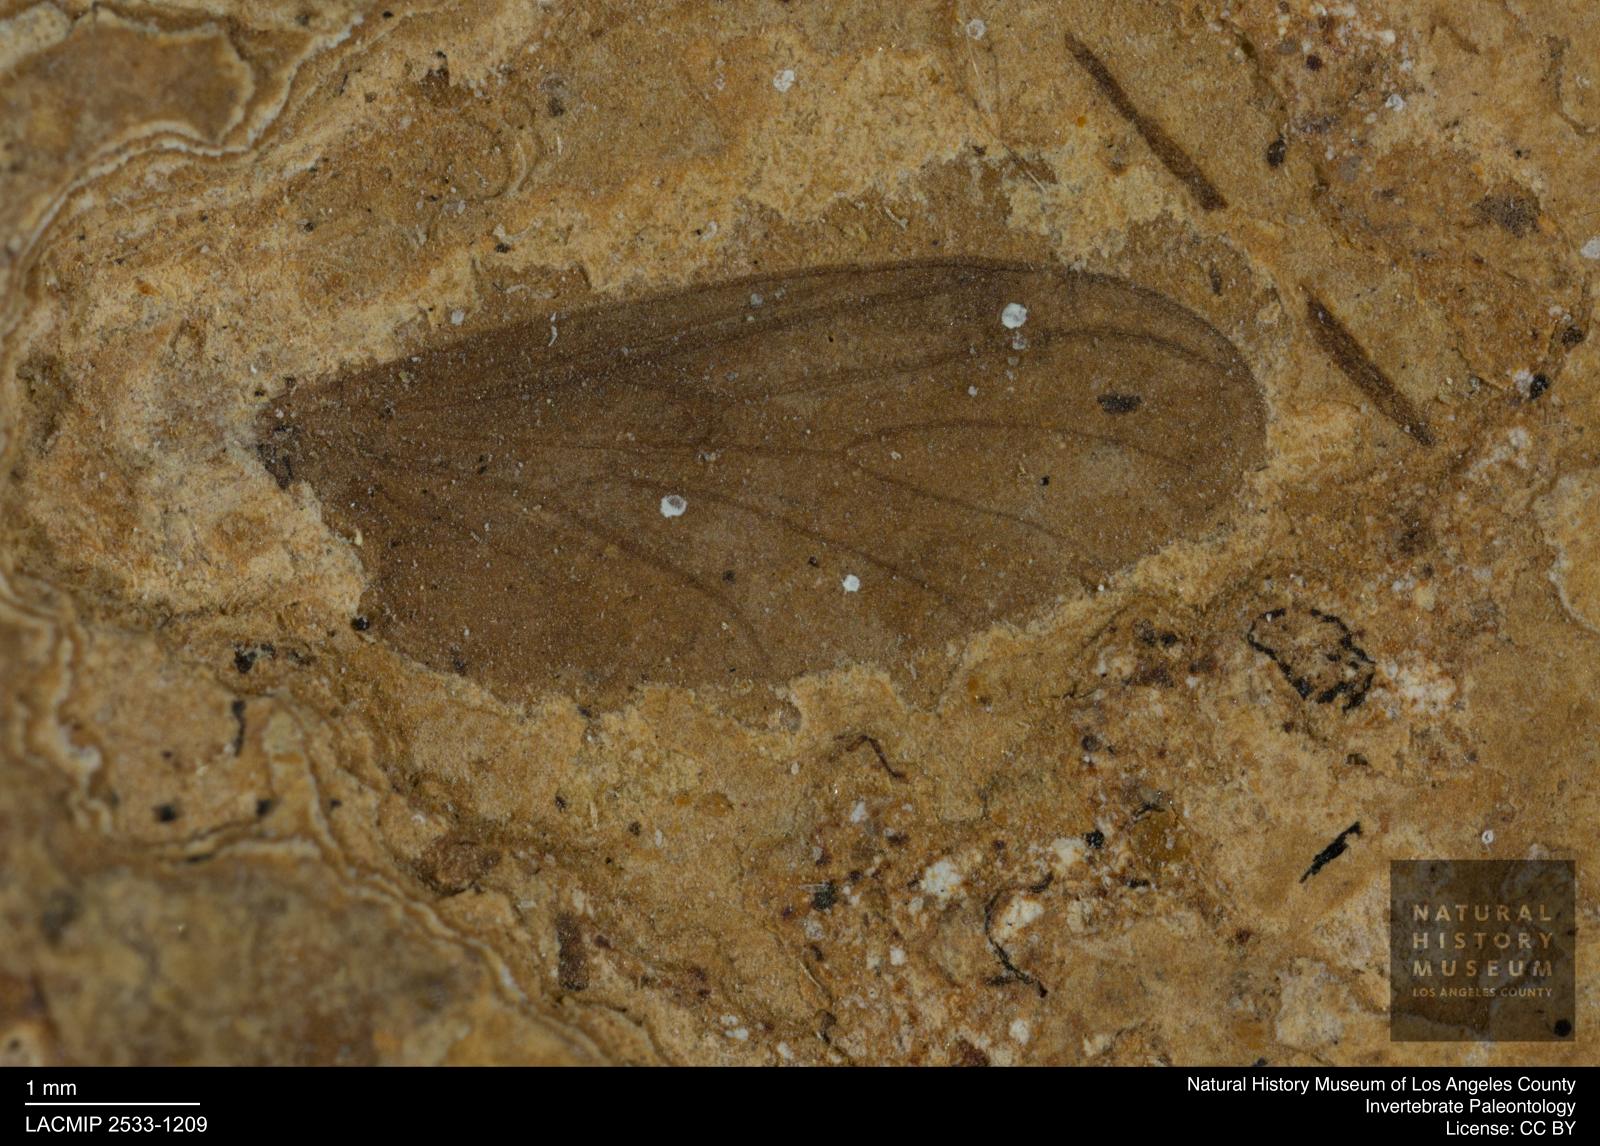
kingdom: Animalia
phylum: Arthropoda
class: Insecta
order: Diptera
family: Bibionidae
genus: Plecia
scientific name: Plecia pinguis
